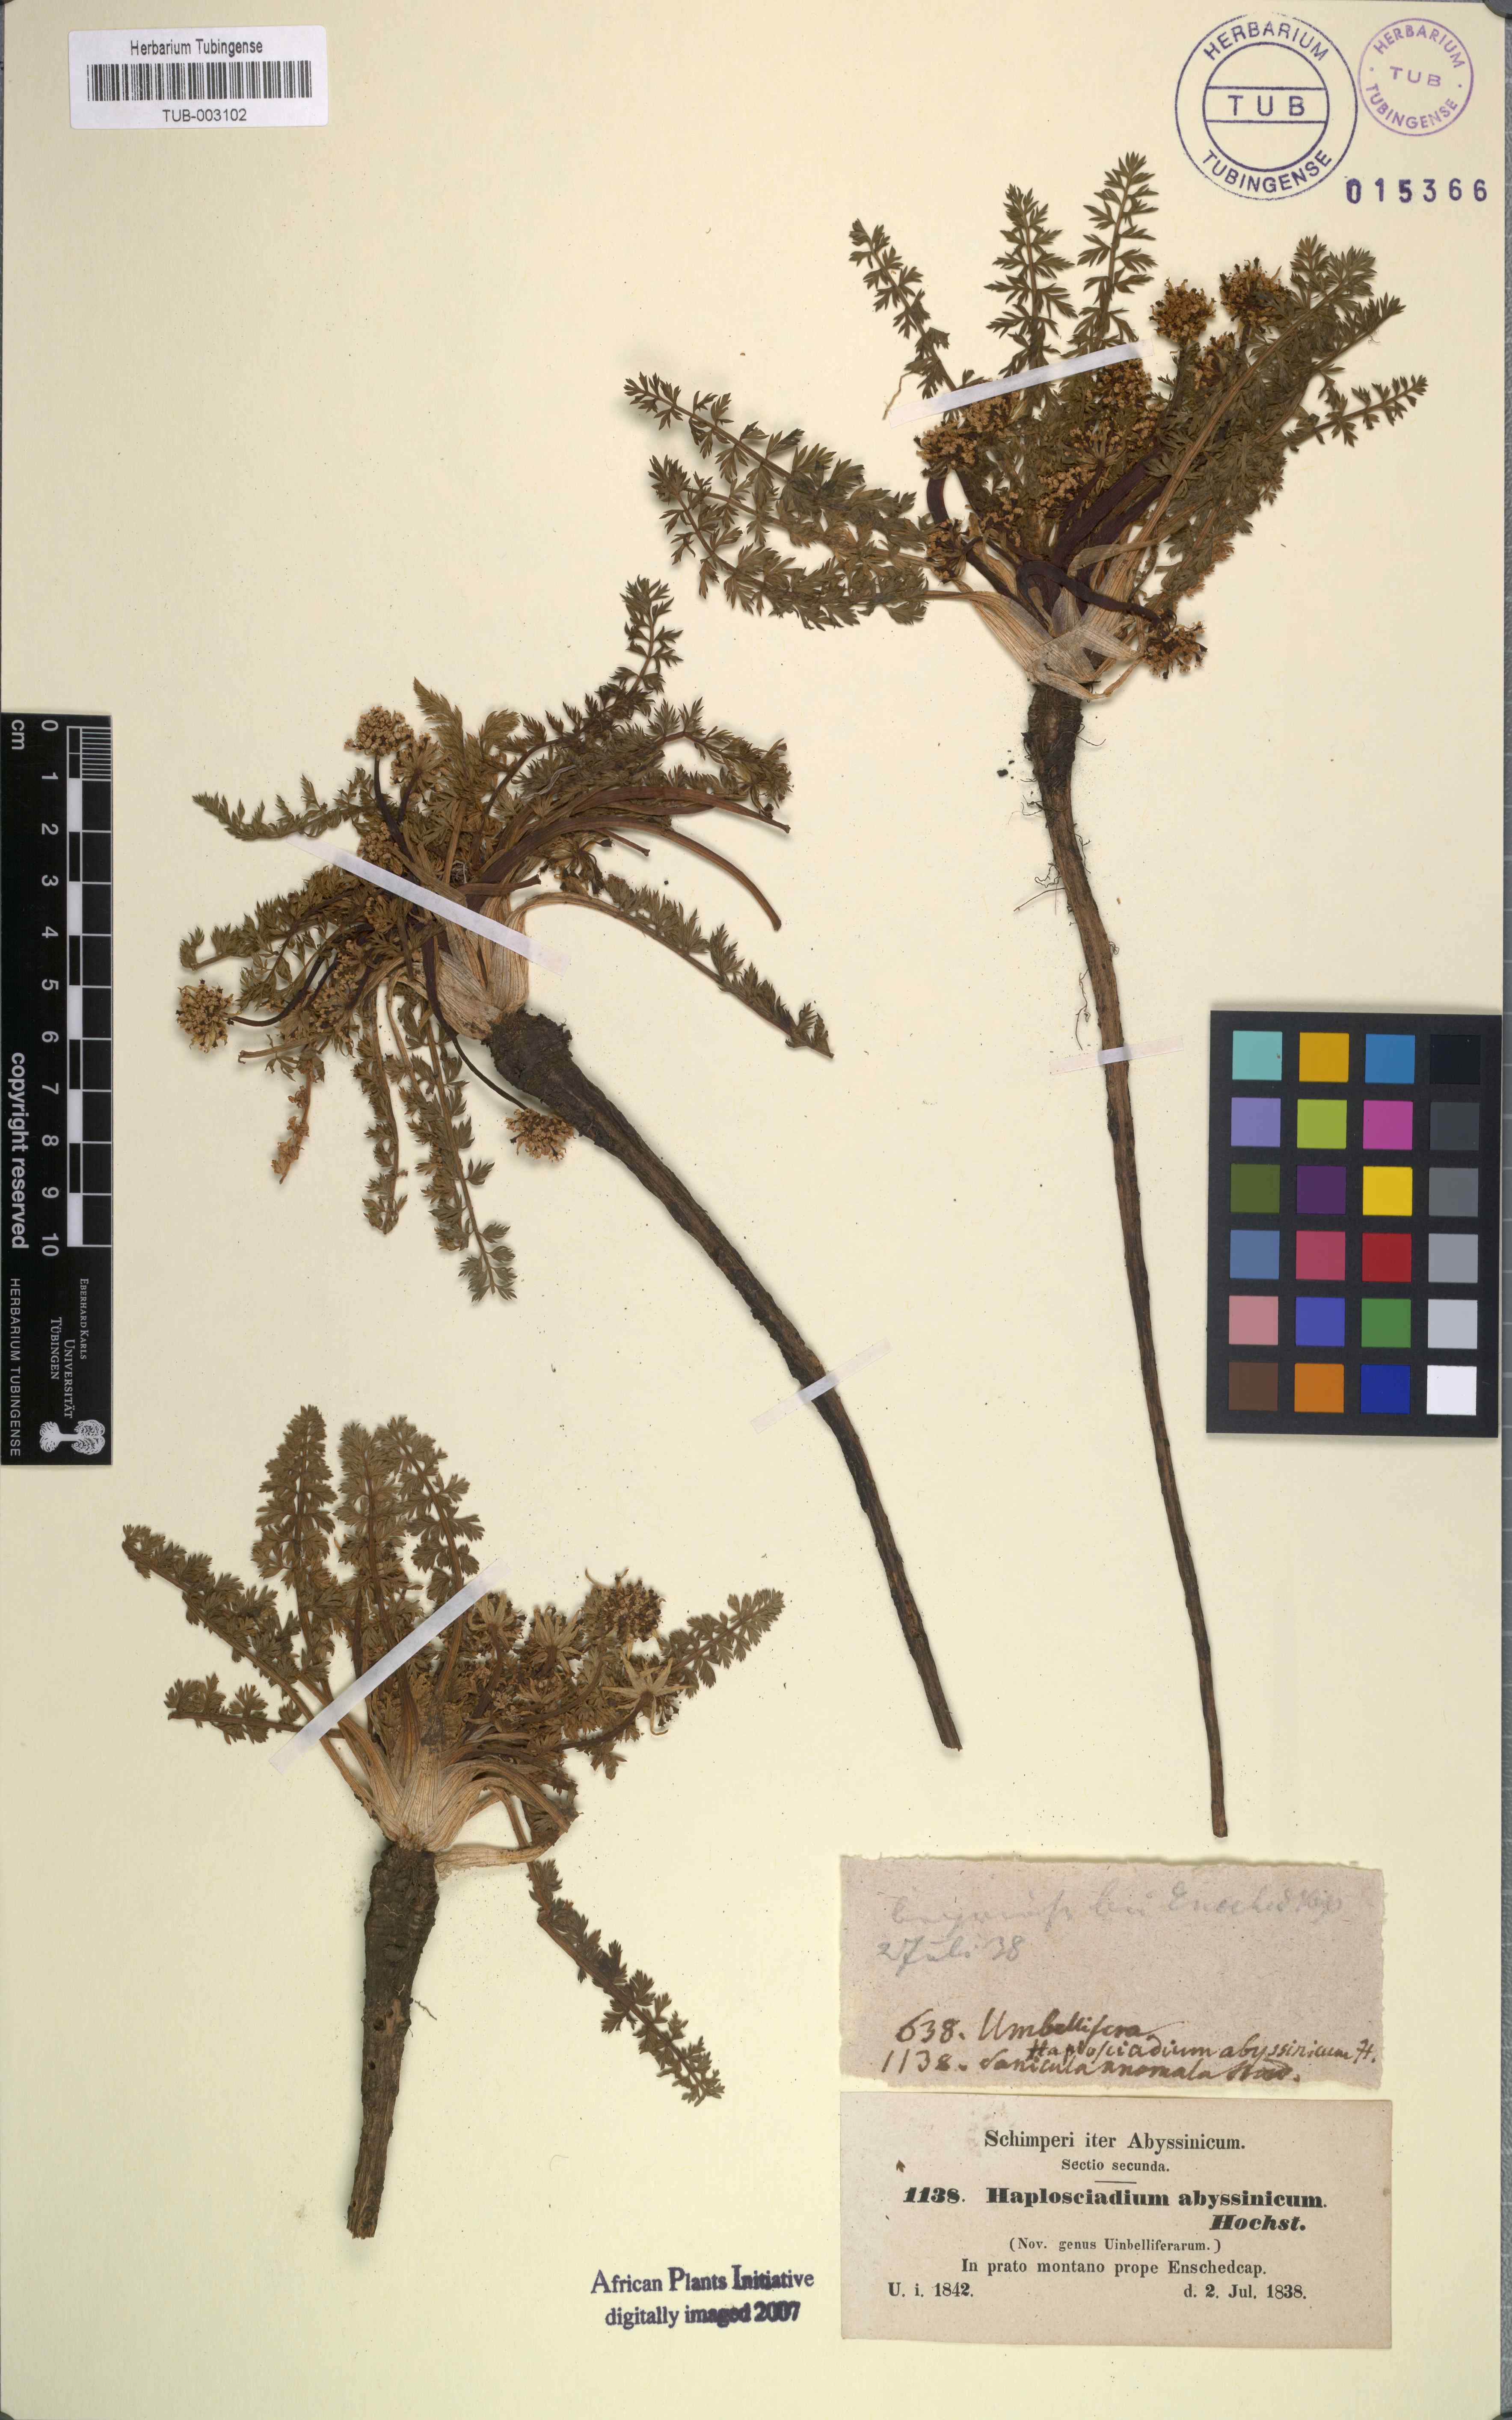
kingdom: Plantae
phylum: Tracheophyta
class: Magnoliopsida
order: Apiales
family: Apiaceae
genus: Haplosciadium
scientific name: Haplosciadium abyssinicum
